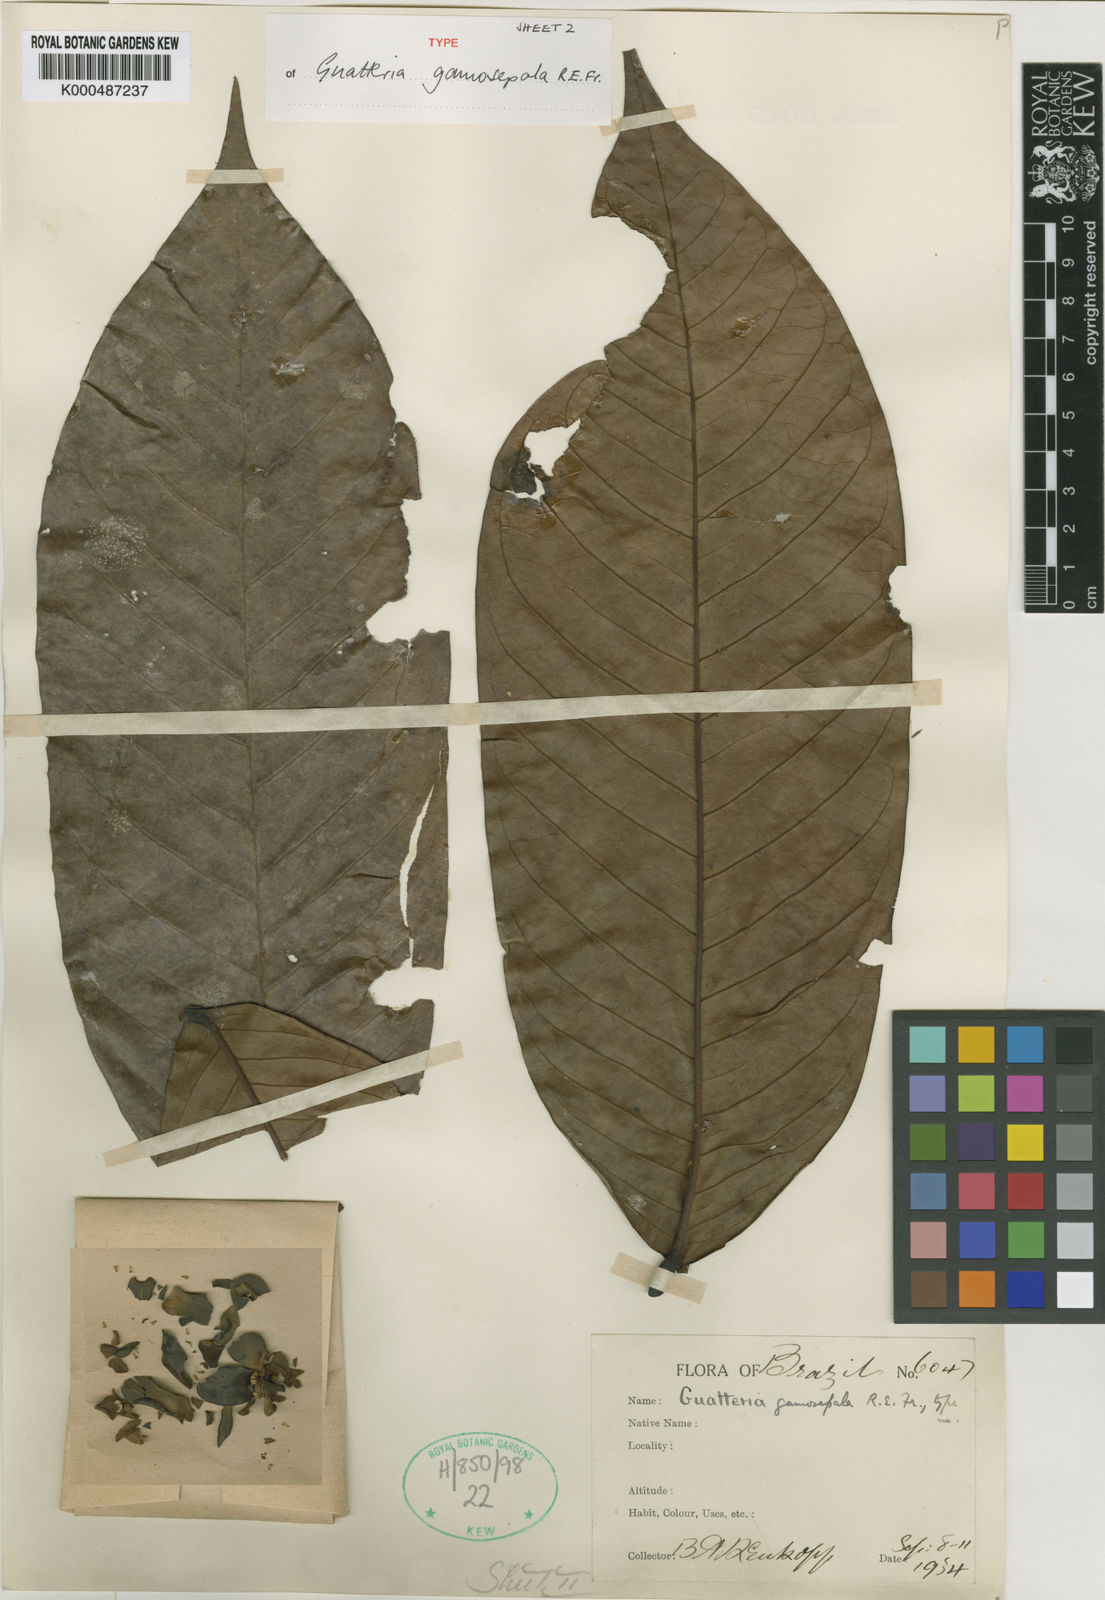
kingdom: Plantae
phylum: Tracheophyta
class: Magnoliopsida
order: Magnoliales
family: Annonaceae
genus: Guatteria
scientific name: Guatteria punctata
